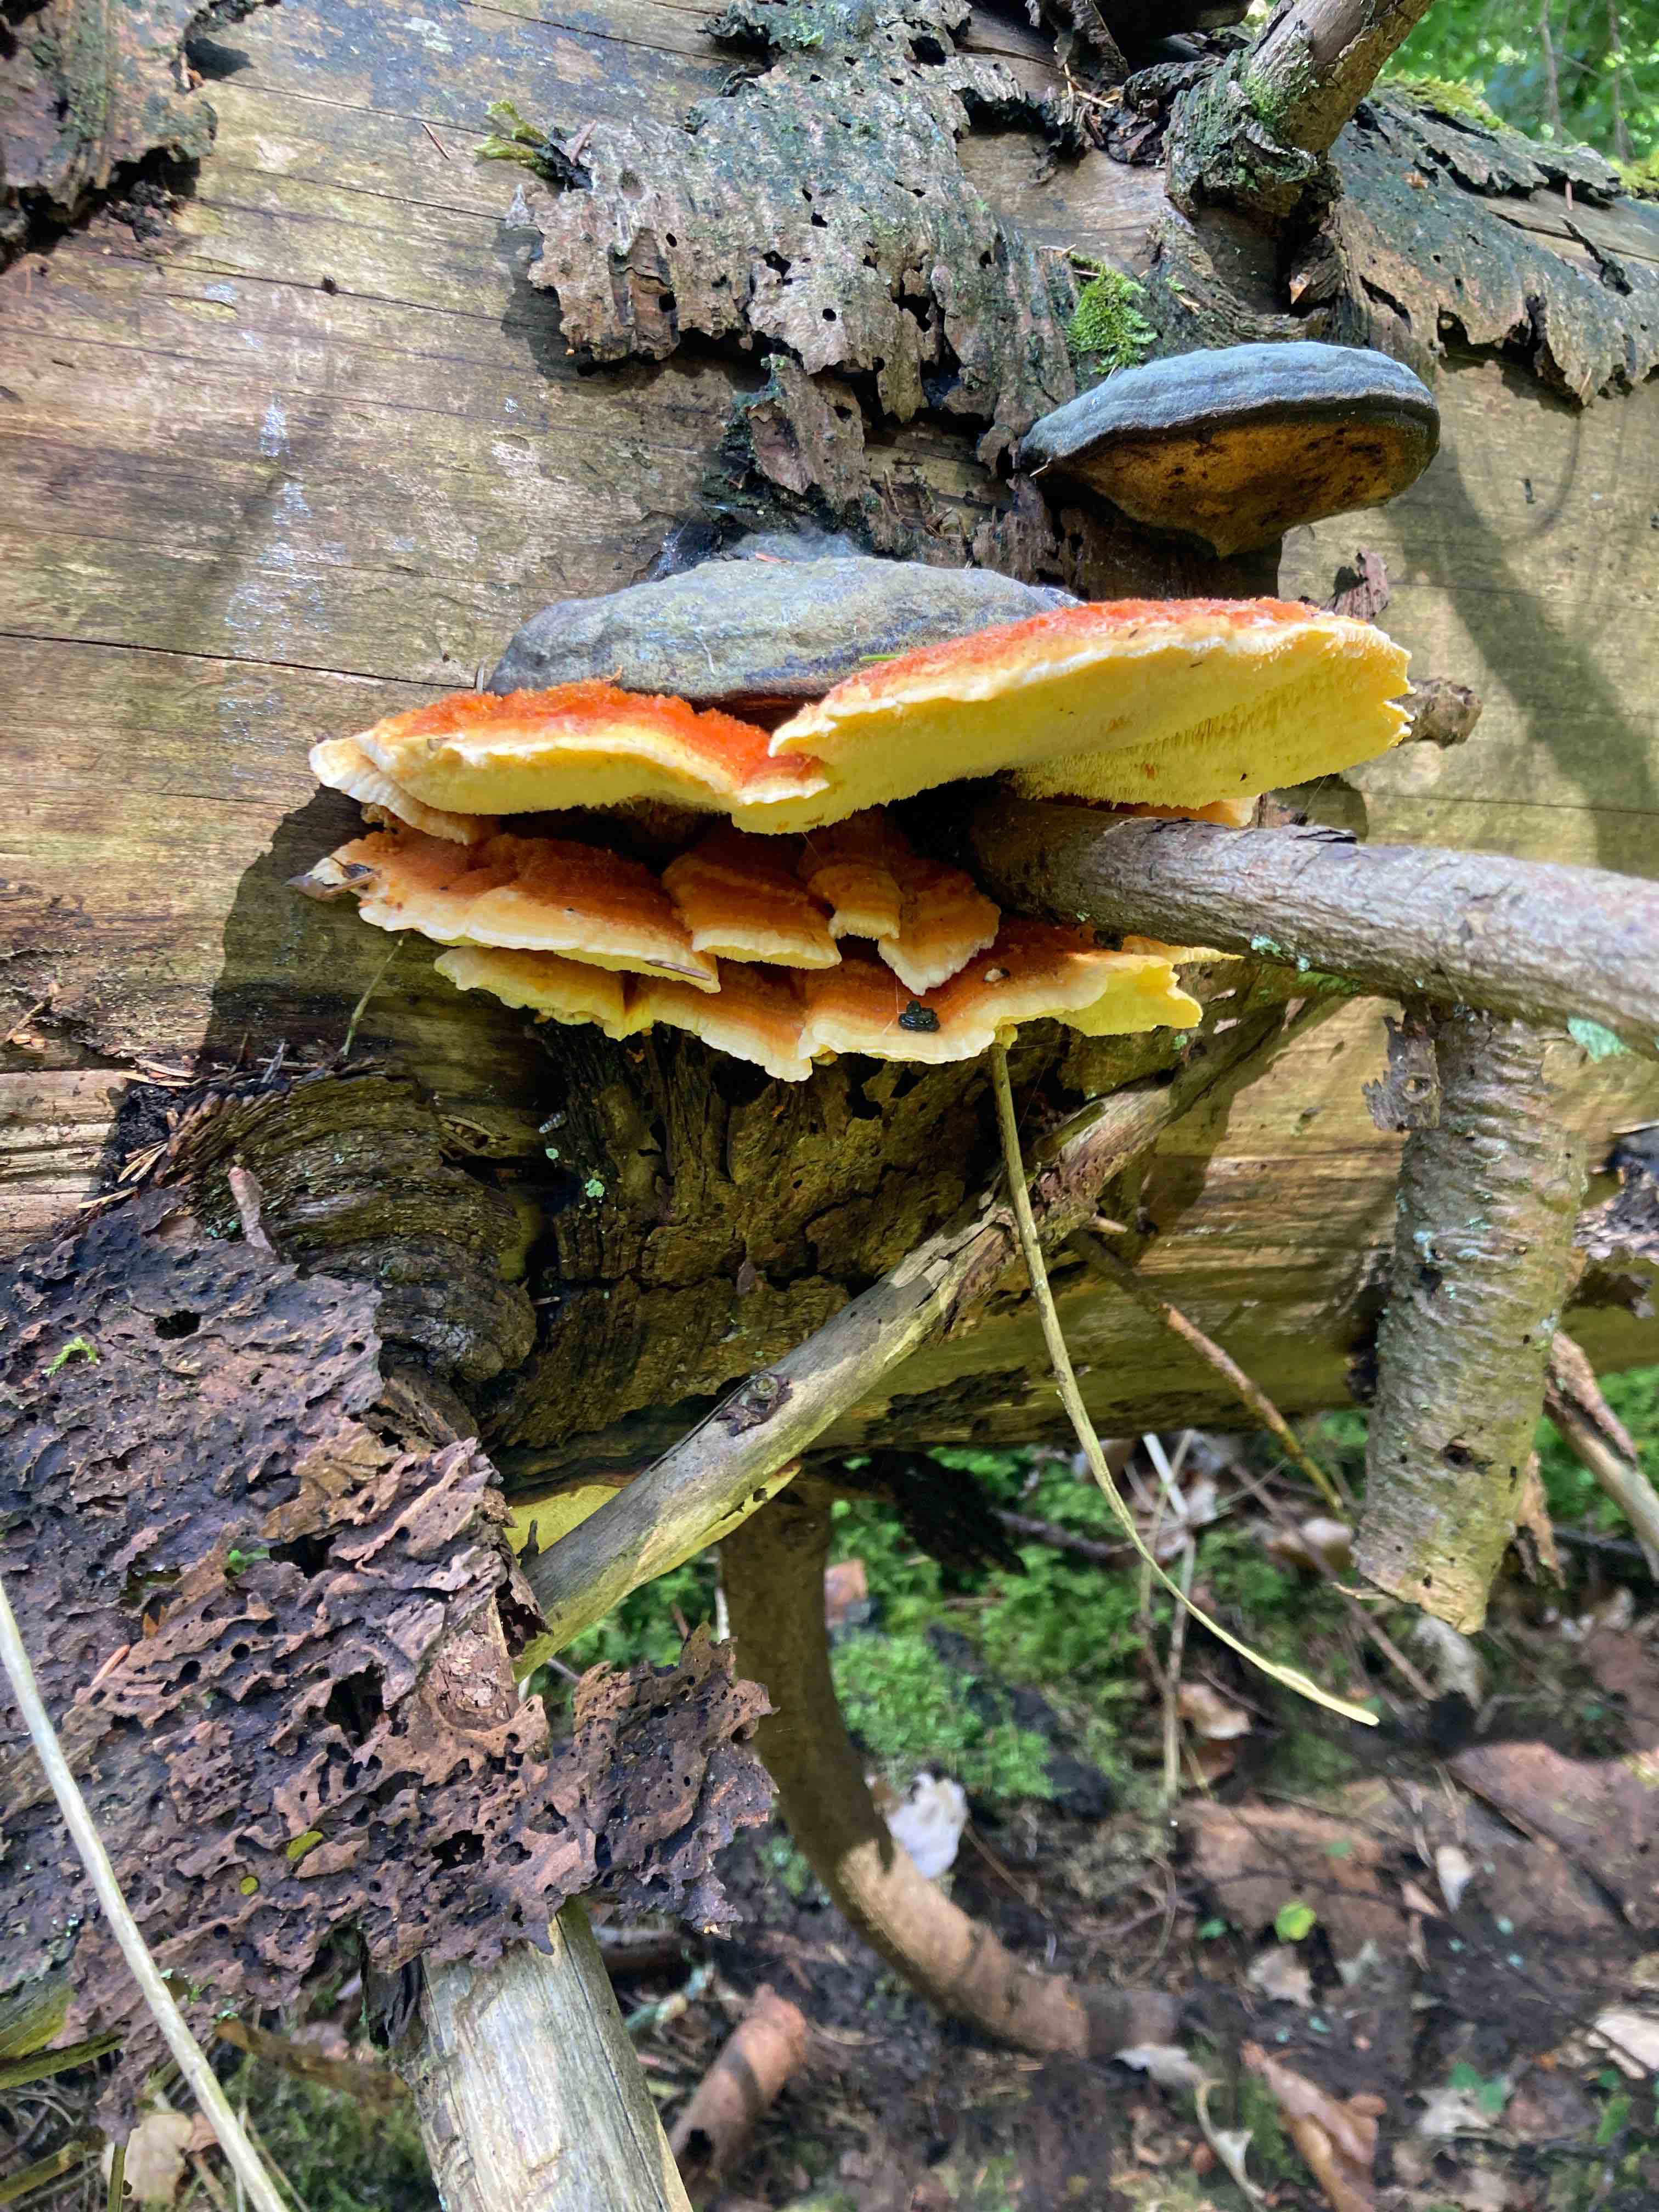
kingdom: Fungi
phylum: Basidiomycota
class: Agaricomycetes
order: Polyporales
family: Pycnoporellaceae
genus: Pycnoporellus
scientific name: Pycnoporellus fulgens
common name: flammeporesvamp
